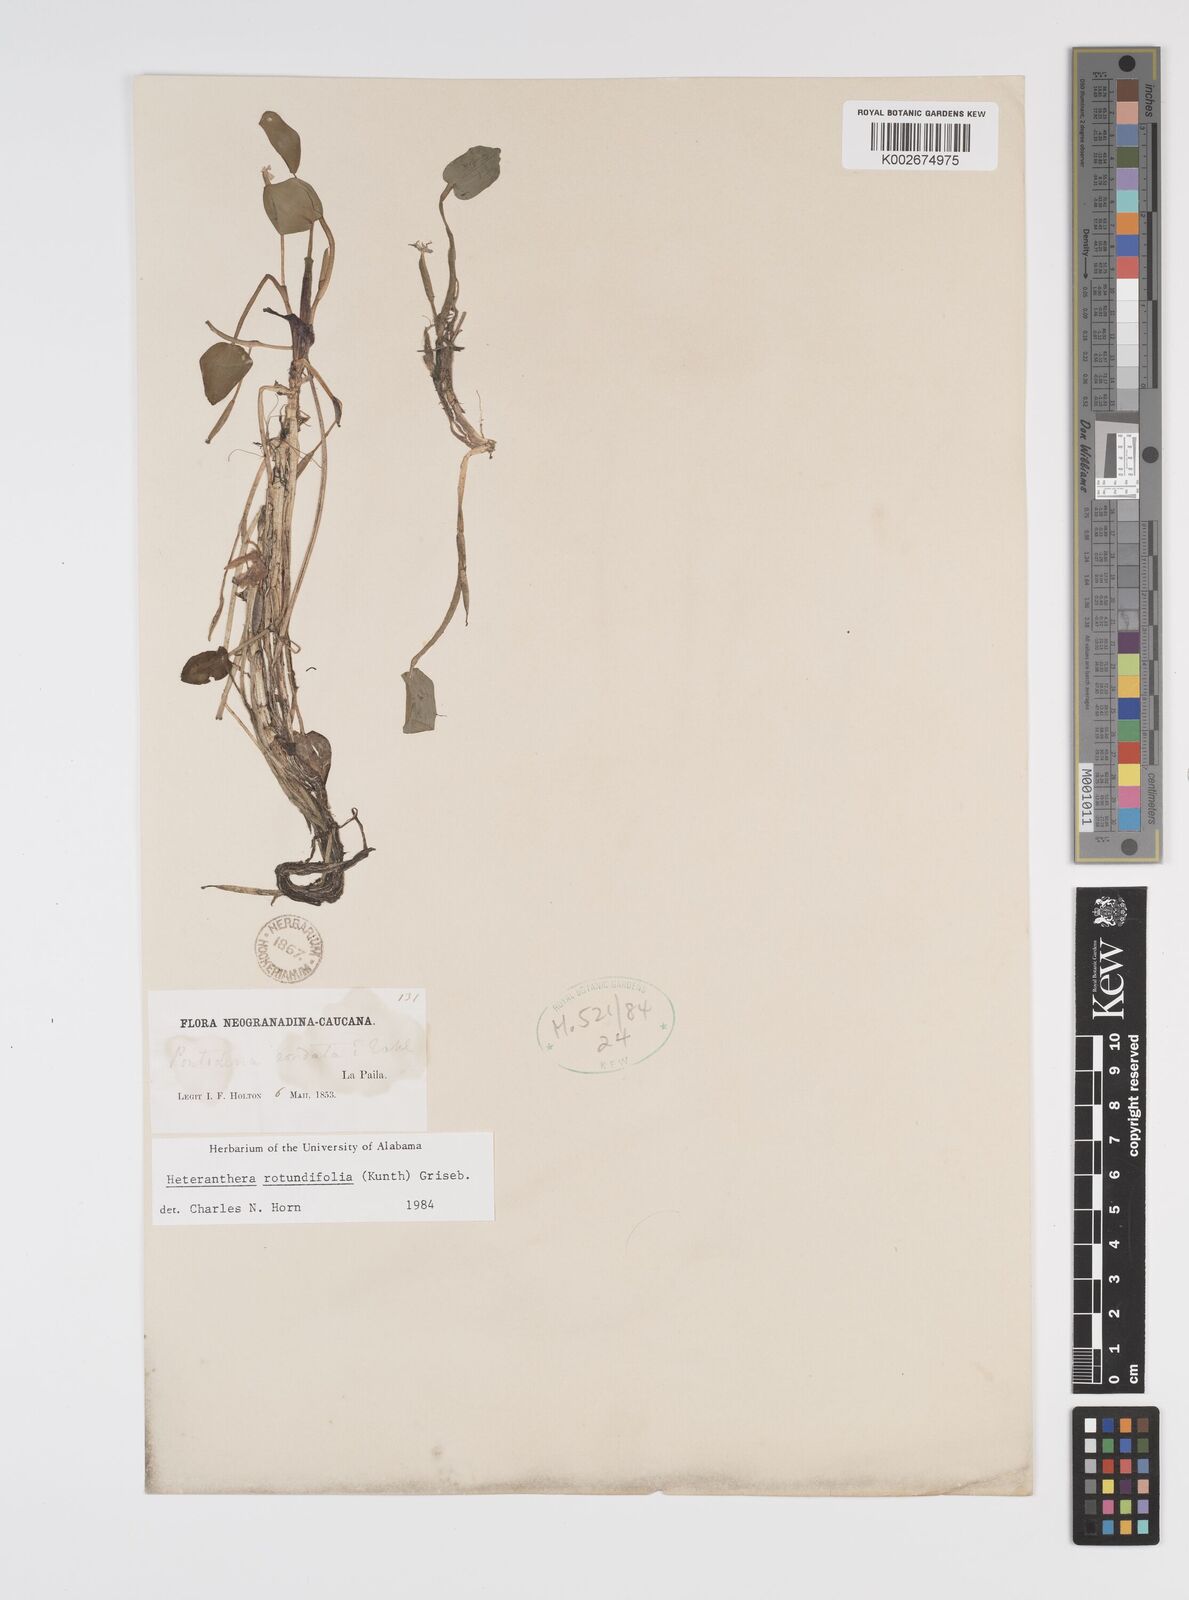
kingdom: Plantae
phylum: Tracheophyta
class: Liliopsida
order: Commelinales
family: Pontederiaceae
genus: Heteranthera
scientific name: Heteranthera rotundifolia
